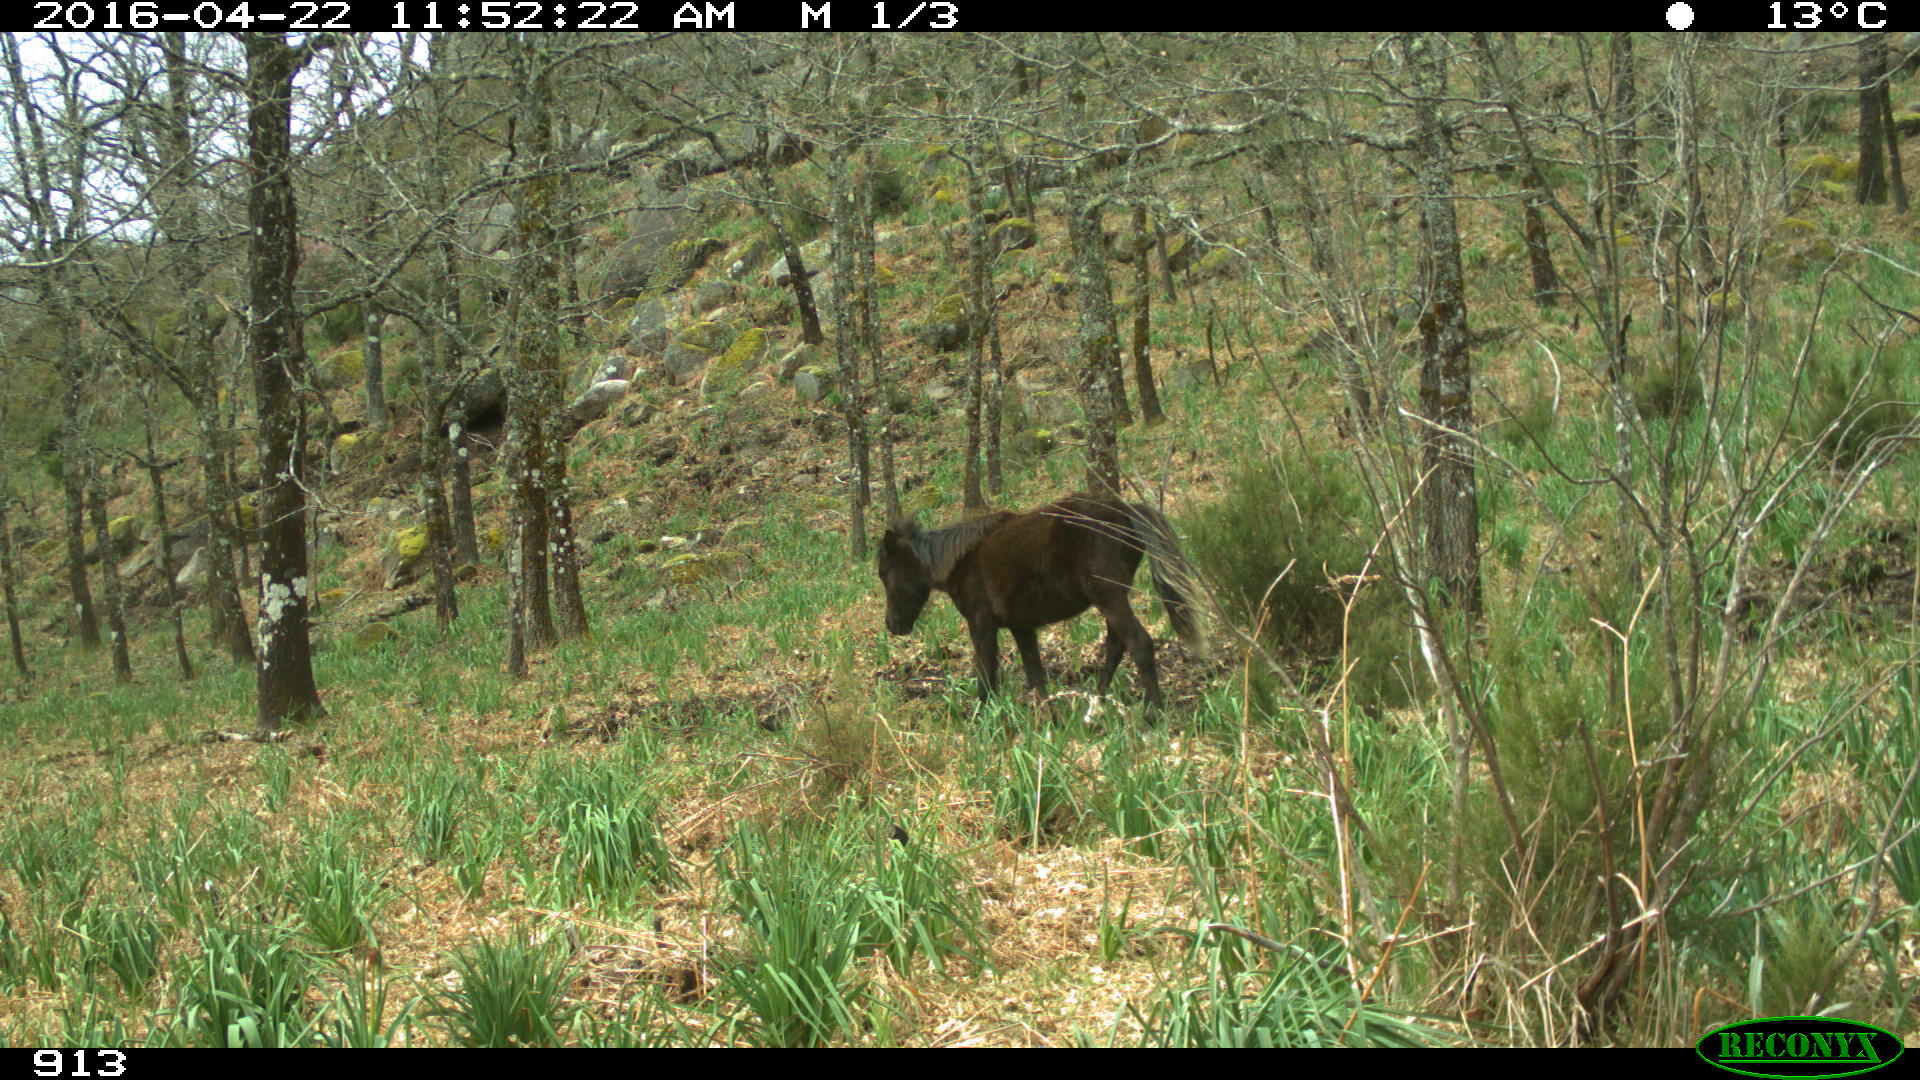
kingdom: Animalia
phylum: Chordata
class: Mammalia
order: Perissodactyla
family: Equidae
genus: Equus
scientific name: Equus caballus
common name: Horse
